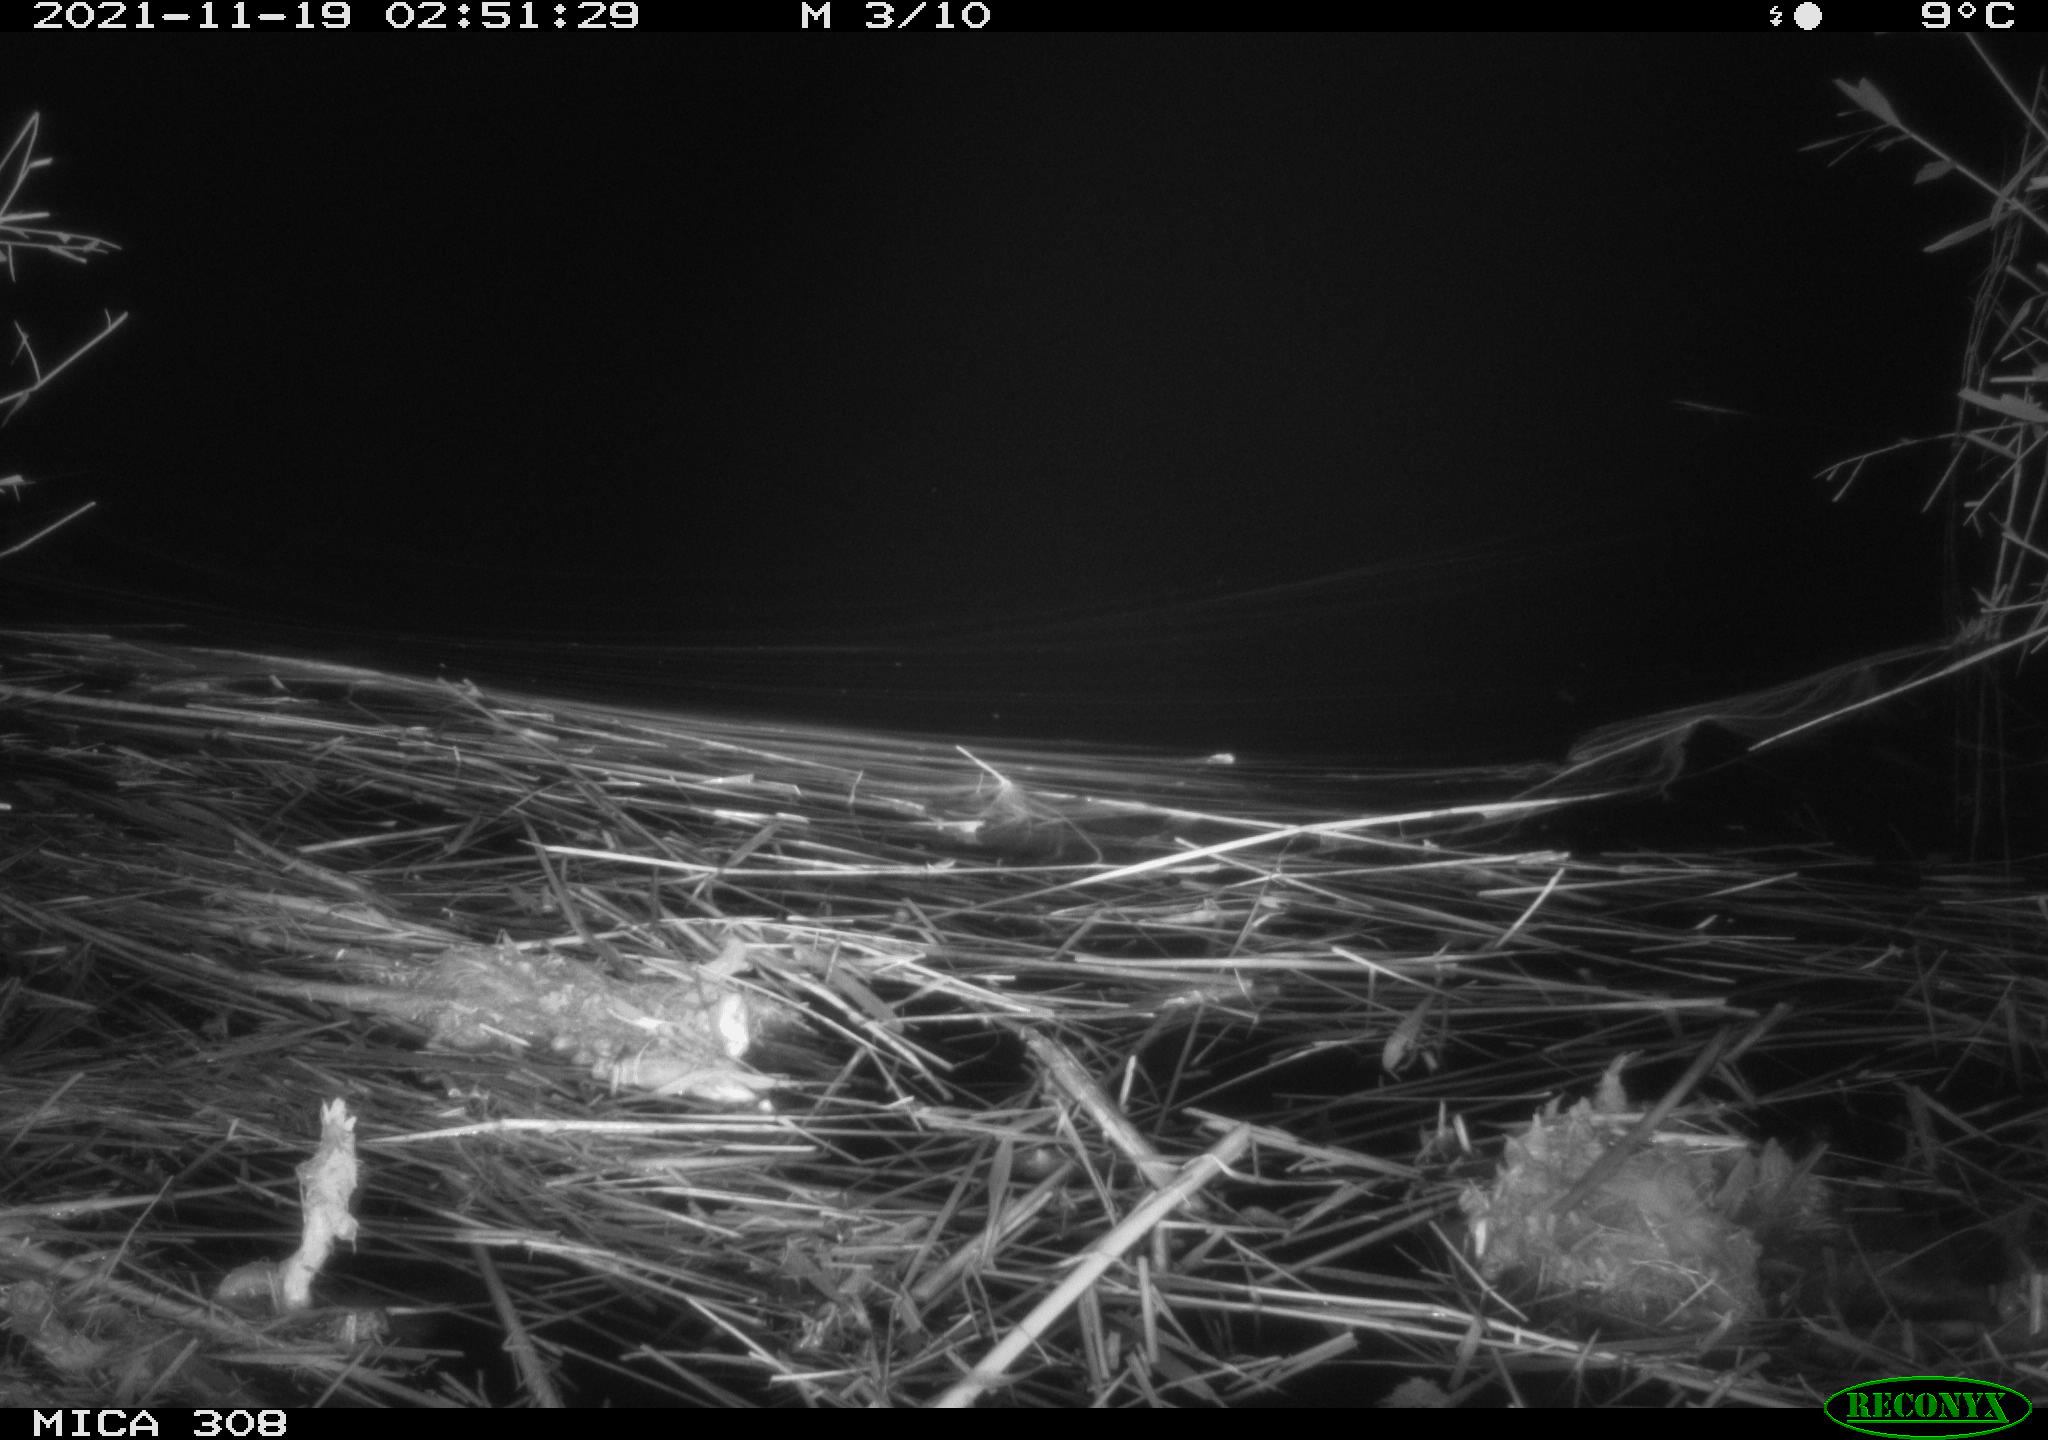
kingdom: Animalia
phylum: Chordata
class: Mammalia
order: Rodentia
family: Muridae
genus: Rattus
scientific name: Rattus norvegicus
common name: Brown rat
